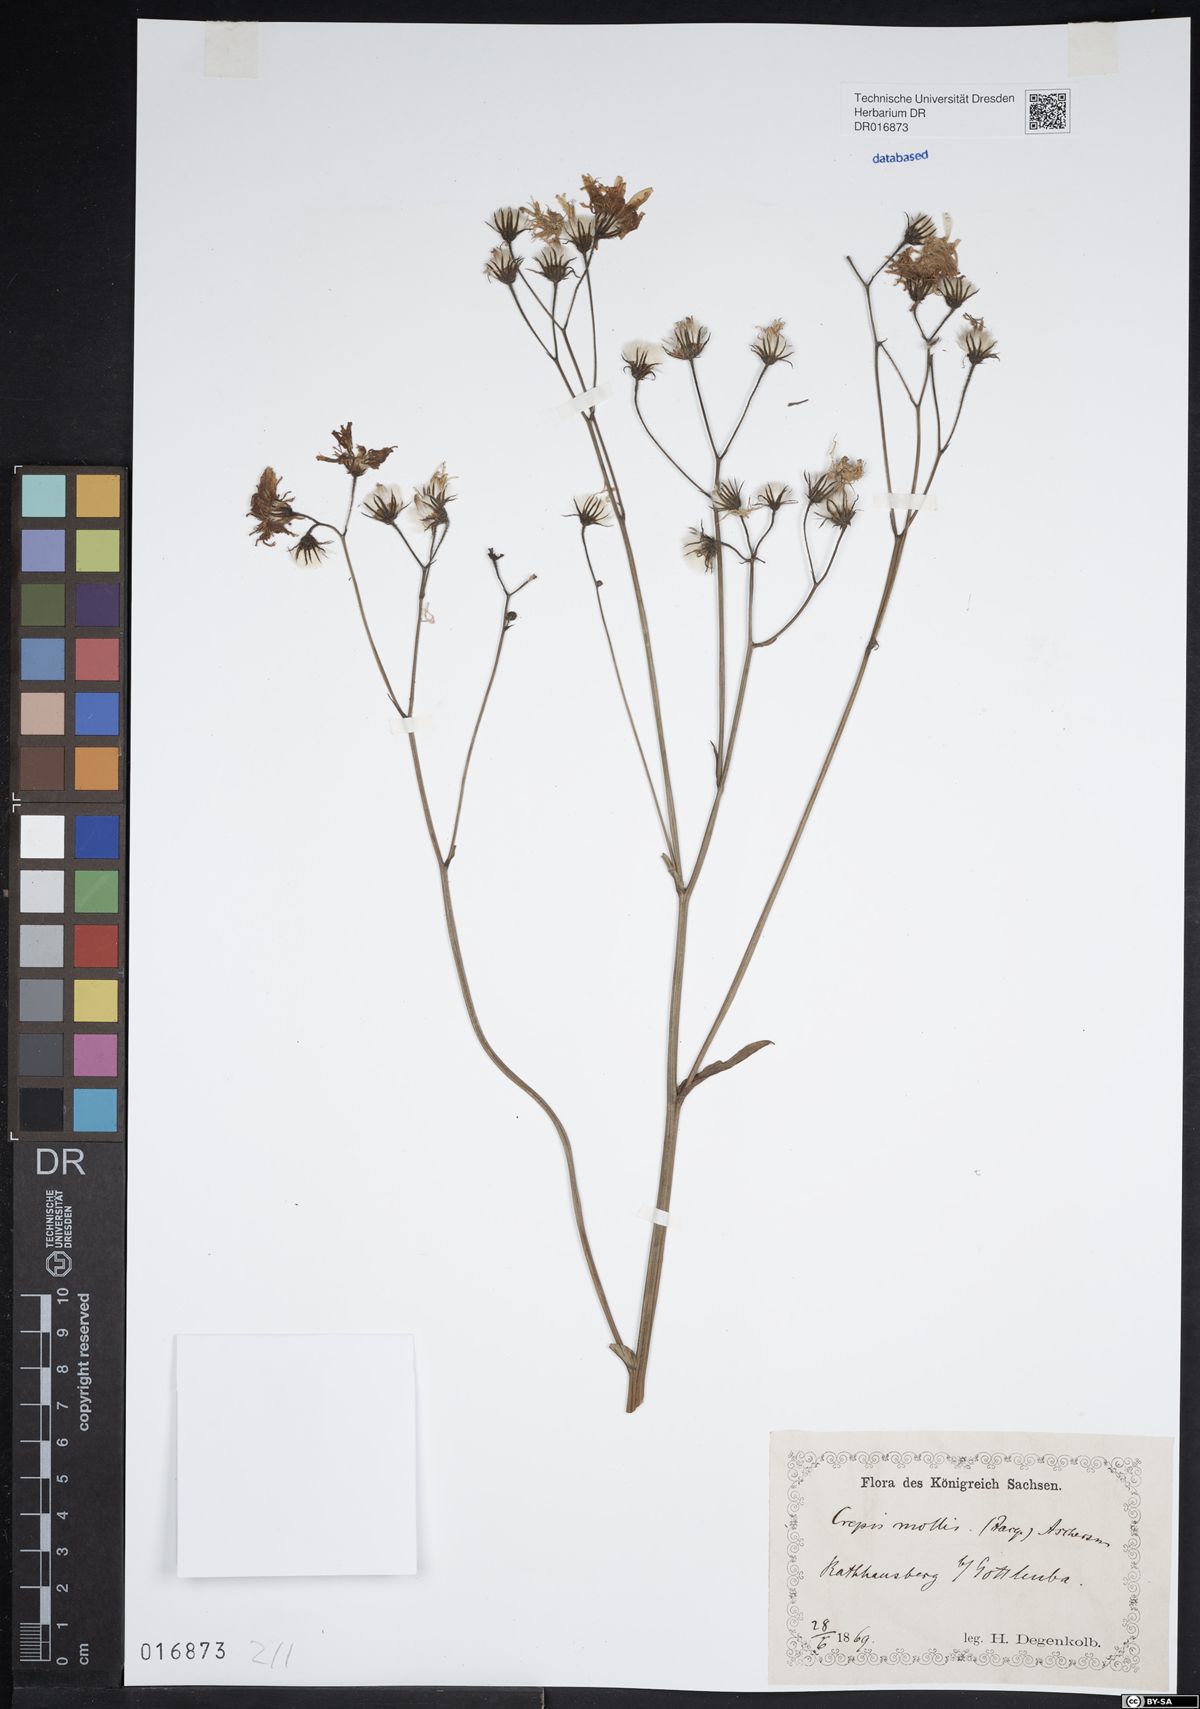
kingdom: Plantae
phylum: Tracheophyta
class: Magnoliopsida
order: Asterales
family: Asteraceae
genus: Crepis
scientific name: Crepis mollis
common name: Northern hawk's-beard
